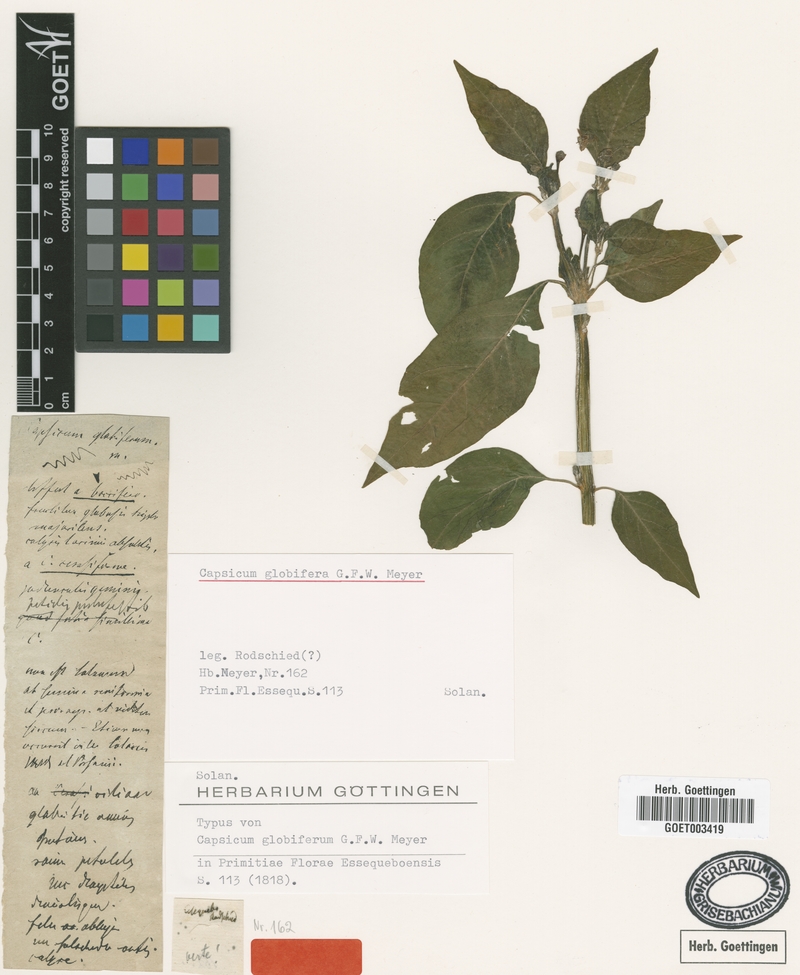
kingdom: Plantae
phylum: Tracheophyta
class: Magnoliopsida
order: Solanales
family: Solanaceae
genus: Capsicum
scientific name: Capsicum annuum
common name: Sweet pepper
